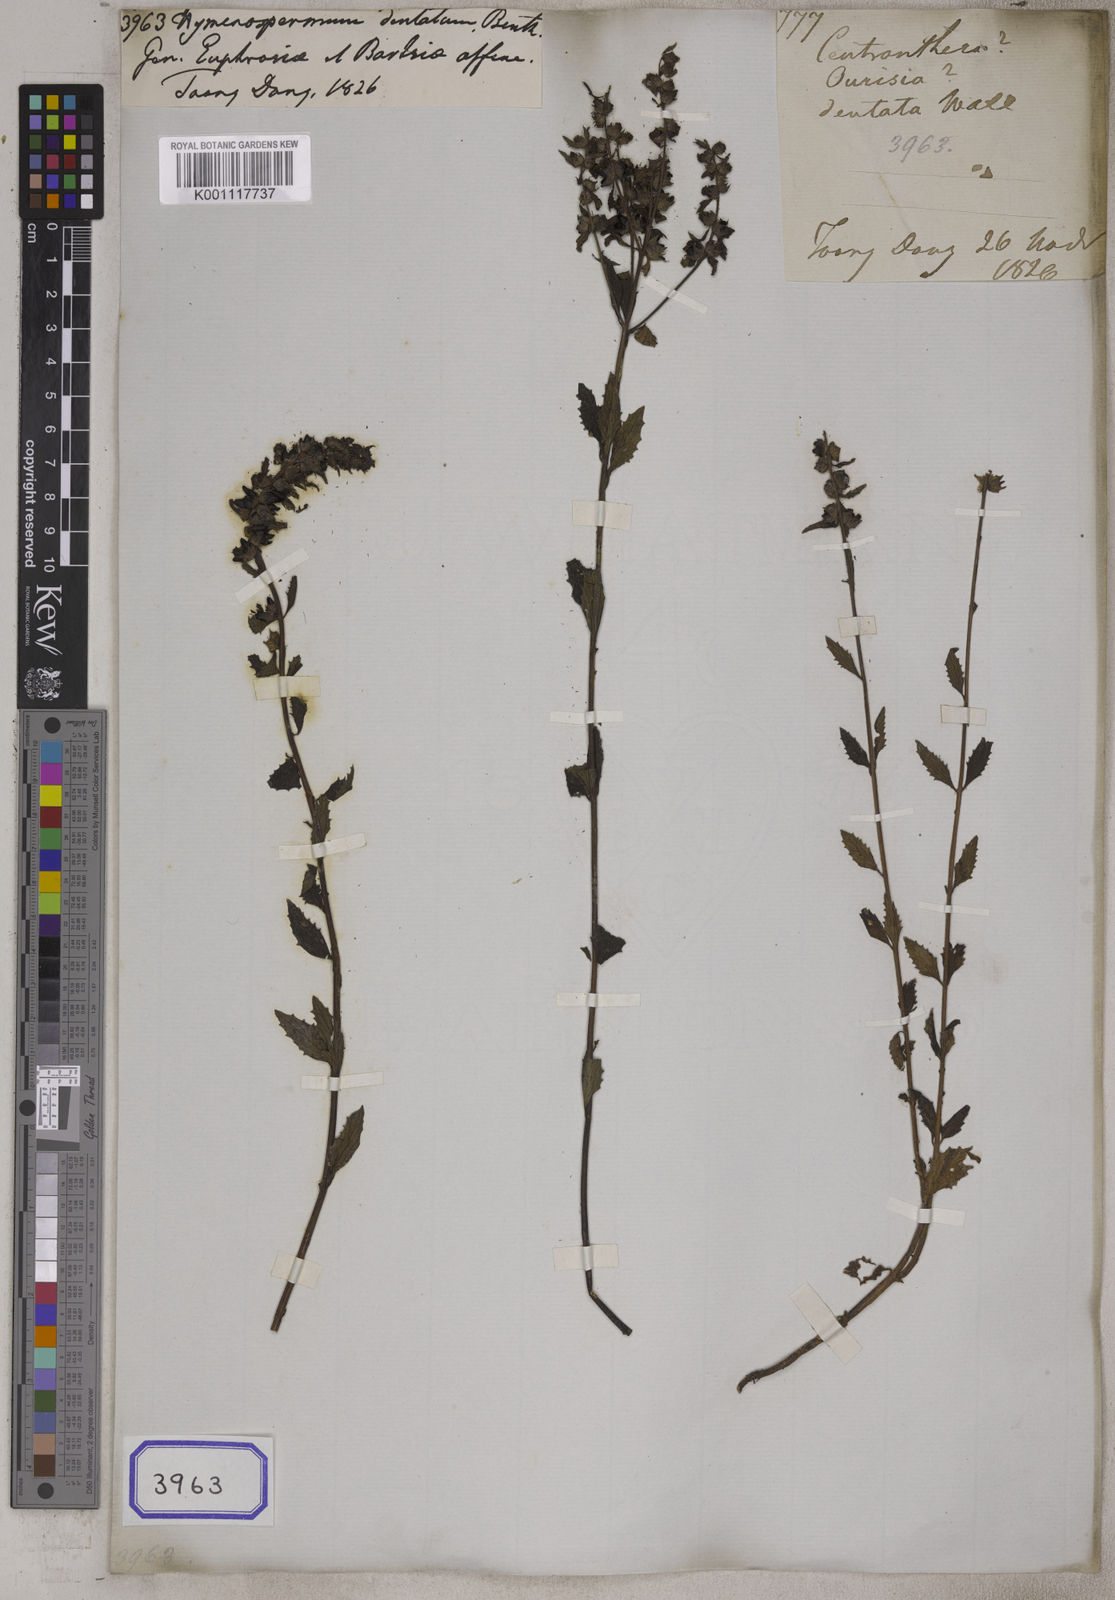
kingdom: Plantae
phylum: Tracheophyta
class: Magnoliopsida
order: Lamiales
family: Orobanchaceae
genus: Alectra
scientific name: Alectra sessiliflora
